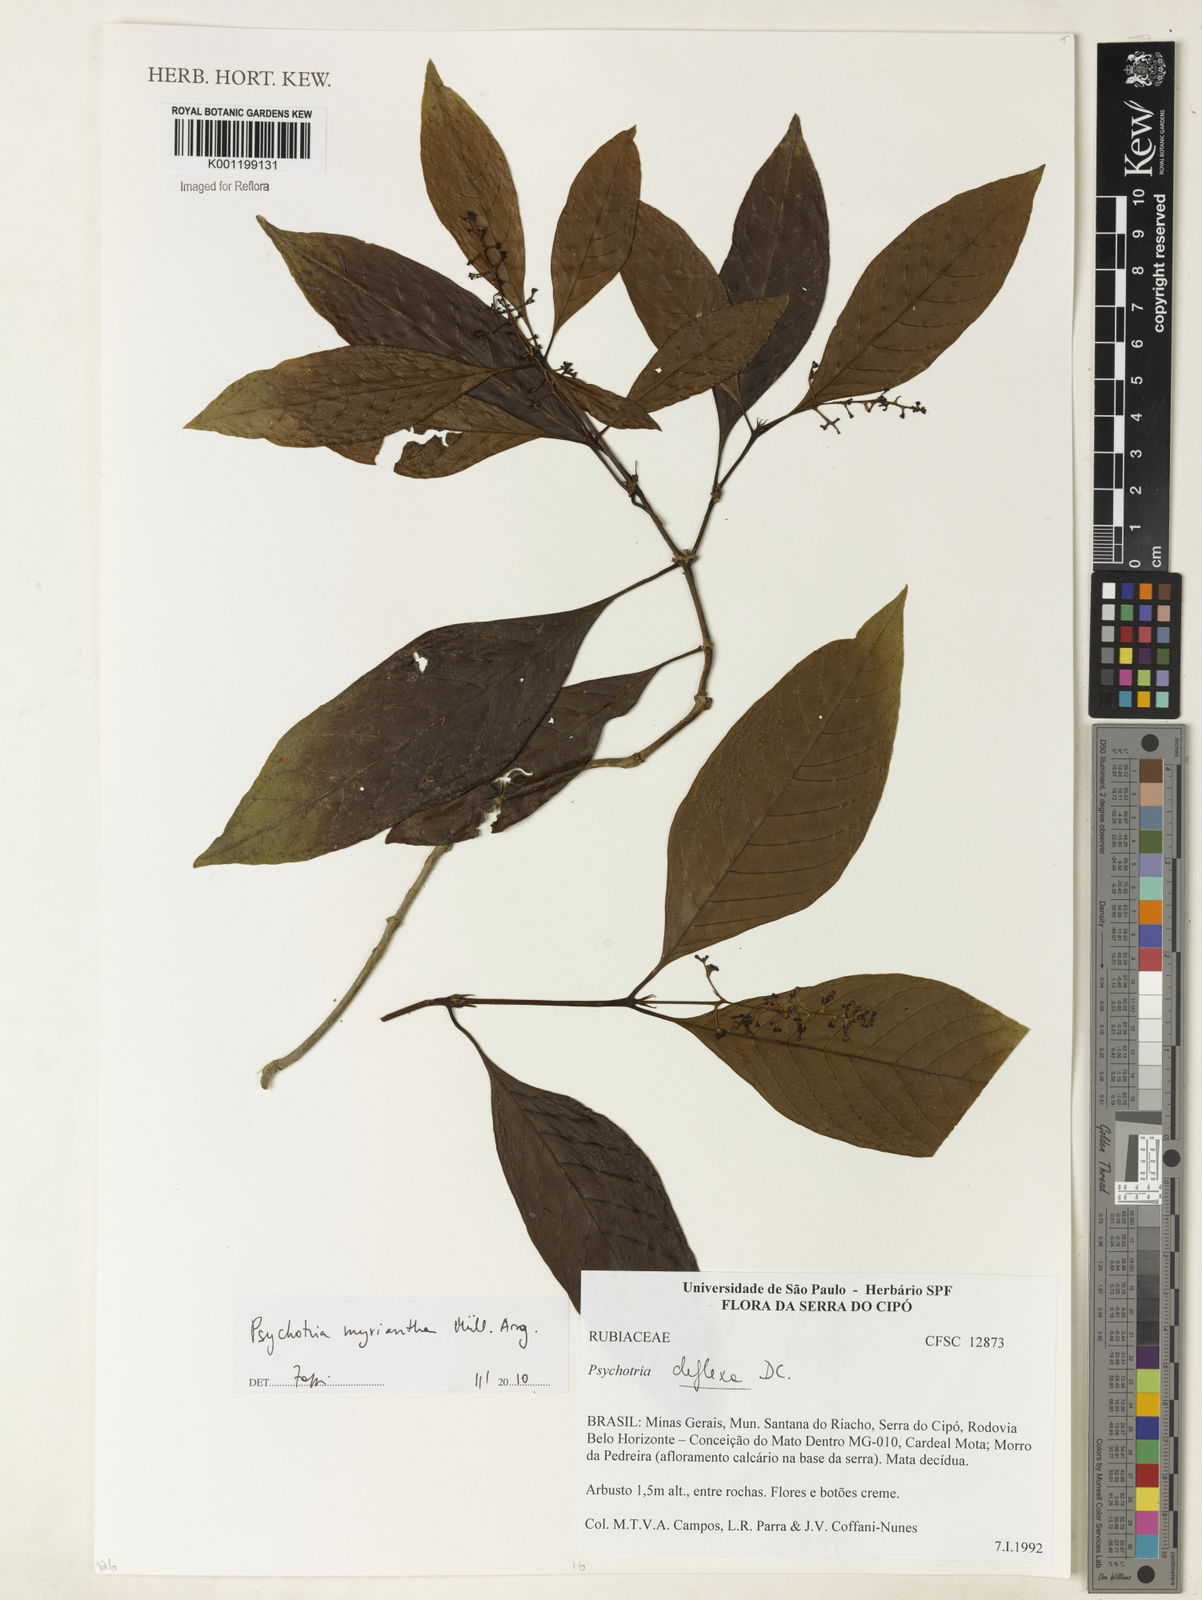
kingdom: Plantae
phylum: Tracheophyta
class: Magnoliopsida
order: Gentianales
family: Rubiaceae
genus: Psychotria
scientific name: Psychotria
